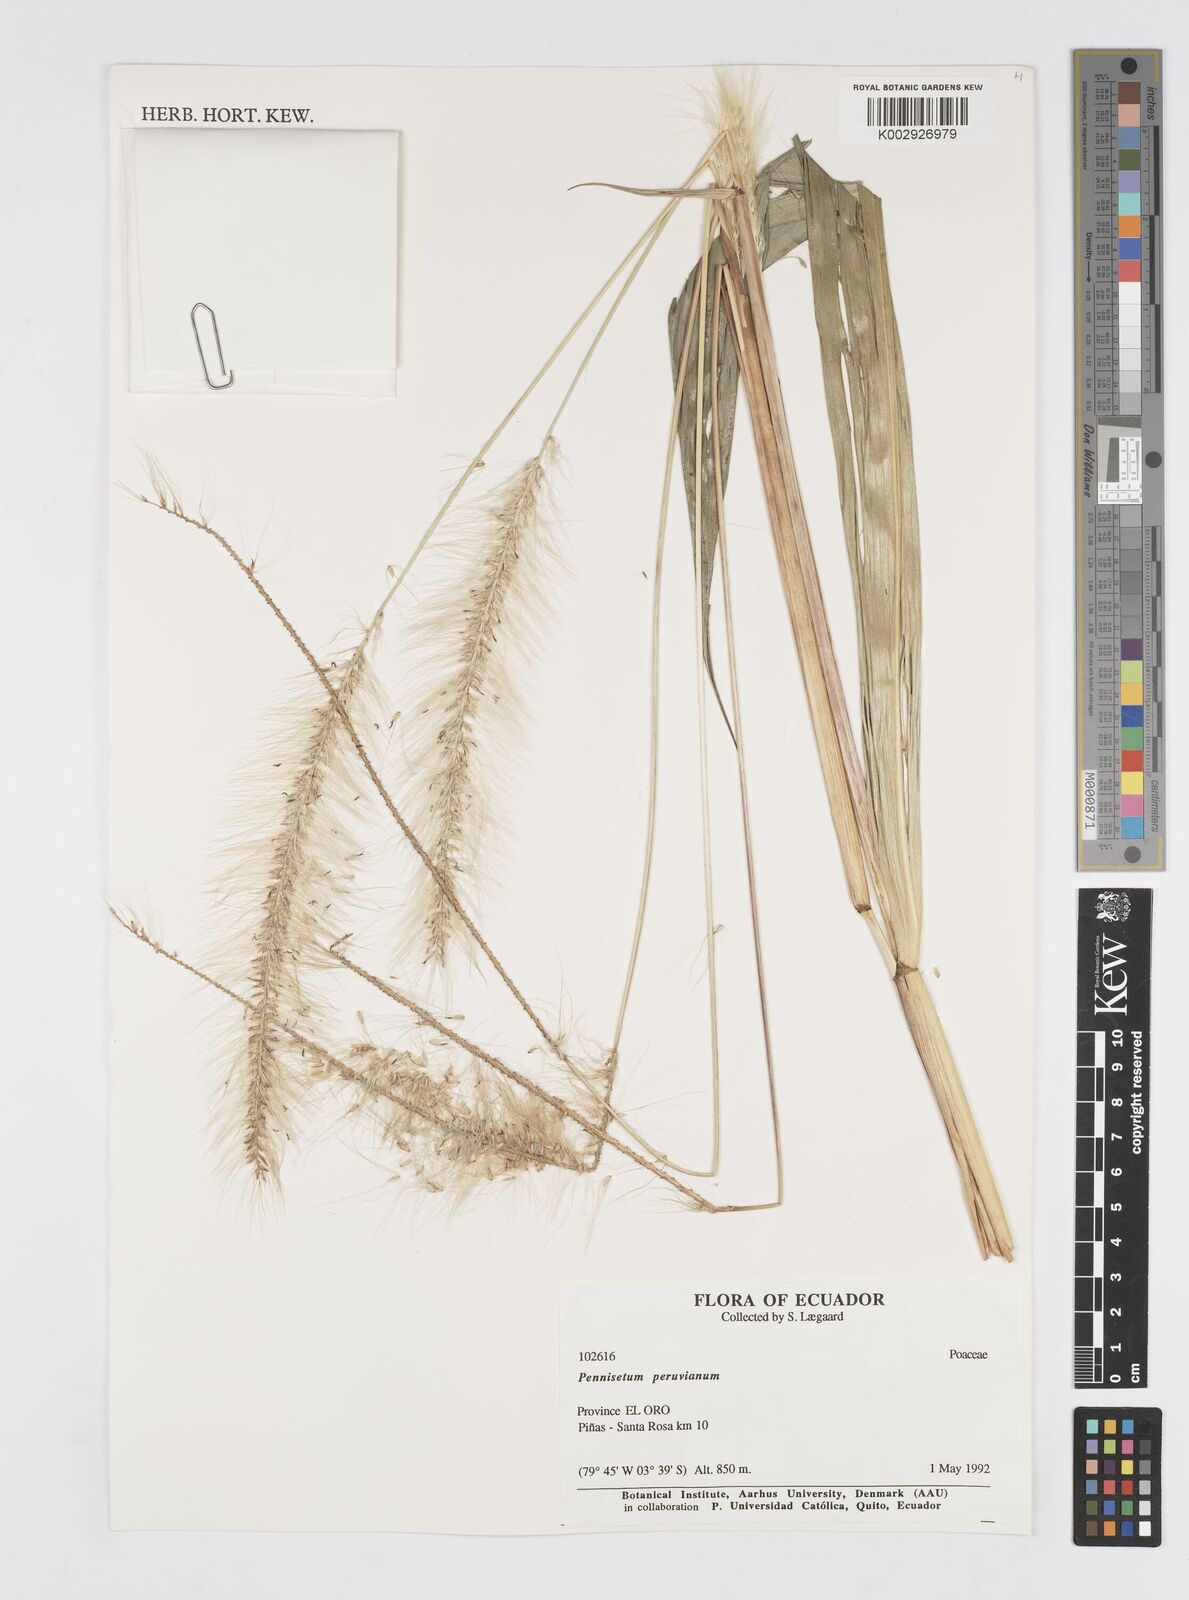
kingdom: Plantae
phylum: Tracheophyta
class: Liliopsida
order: Poales
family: Poaceae
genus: Cenchrus
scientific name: Cenchrus peruvianus
